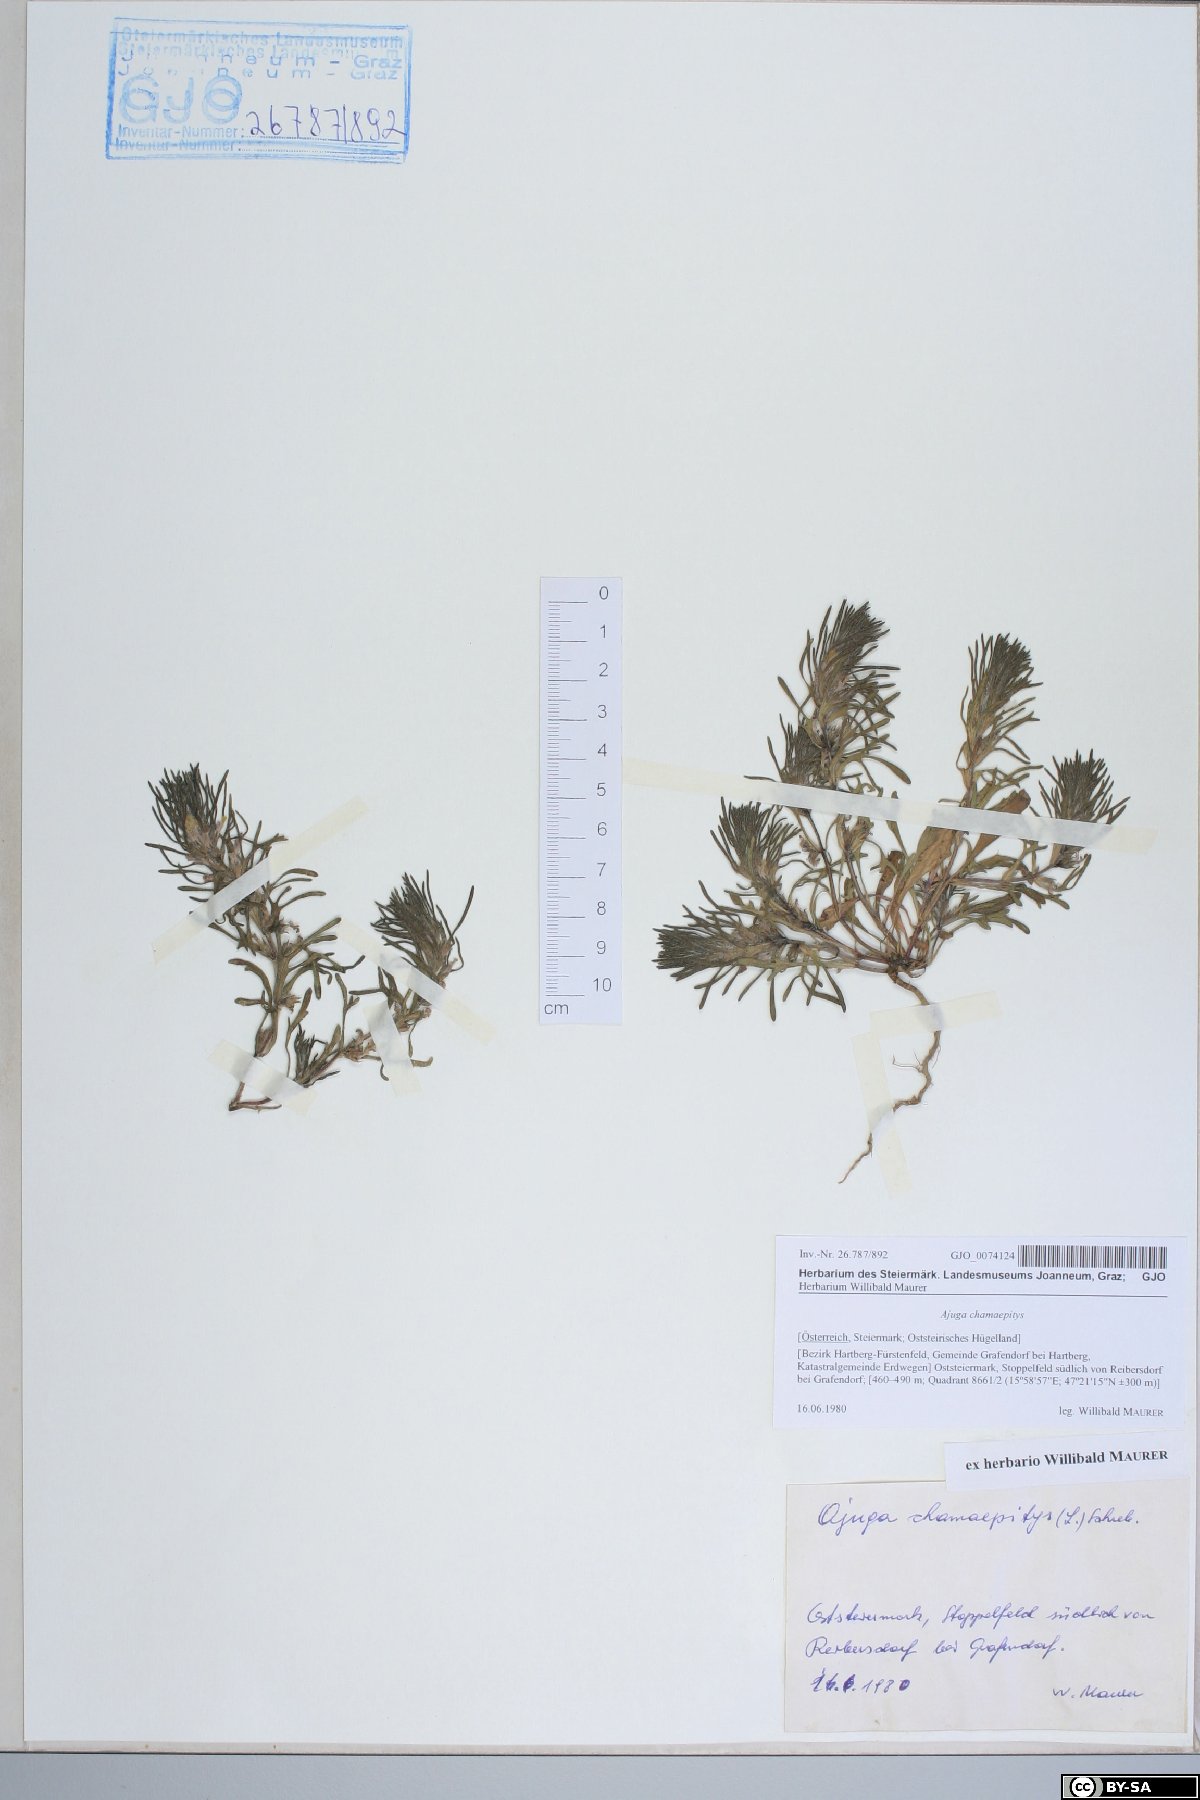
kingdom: Plantae
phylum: Tracheophyta
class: Magnoliopsida
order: Lamiales
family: Lamiaceae
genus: Ajuga
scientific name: Ajuga chamaepitys
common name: Ground-pine
